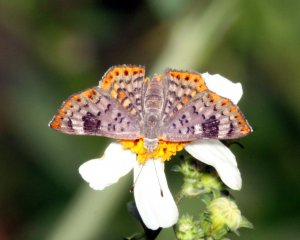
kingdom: Animalia
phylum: Arthropoda
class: Insecta
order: Lepidoptera
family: Riodinidae
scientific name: Riodinidae
